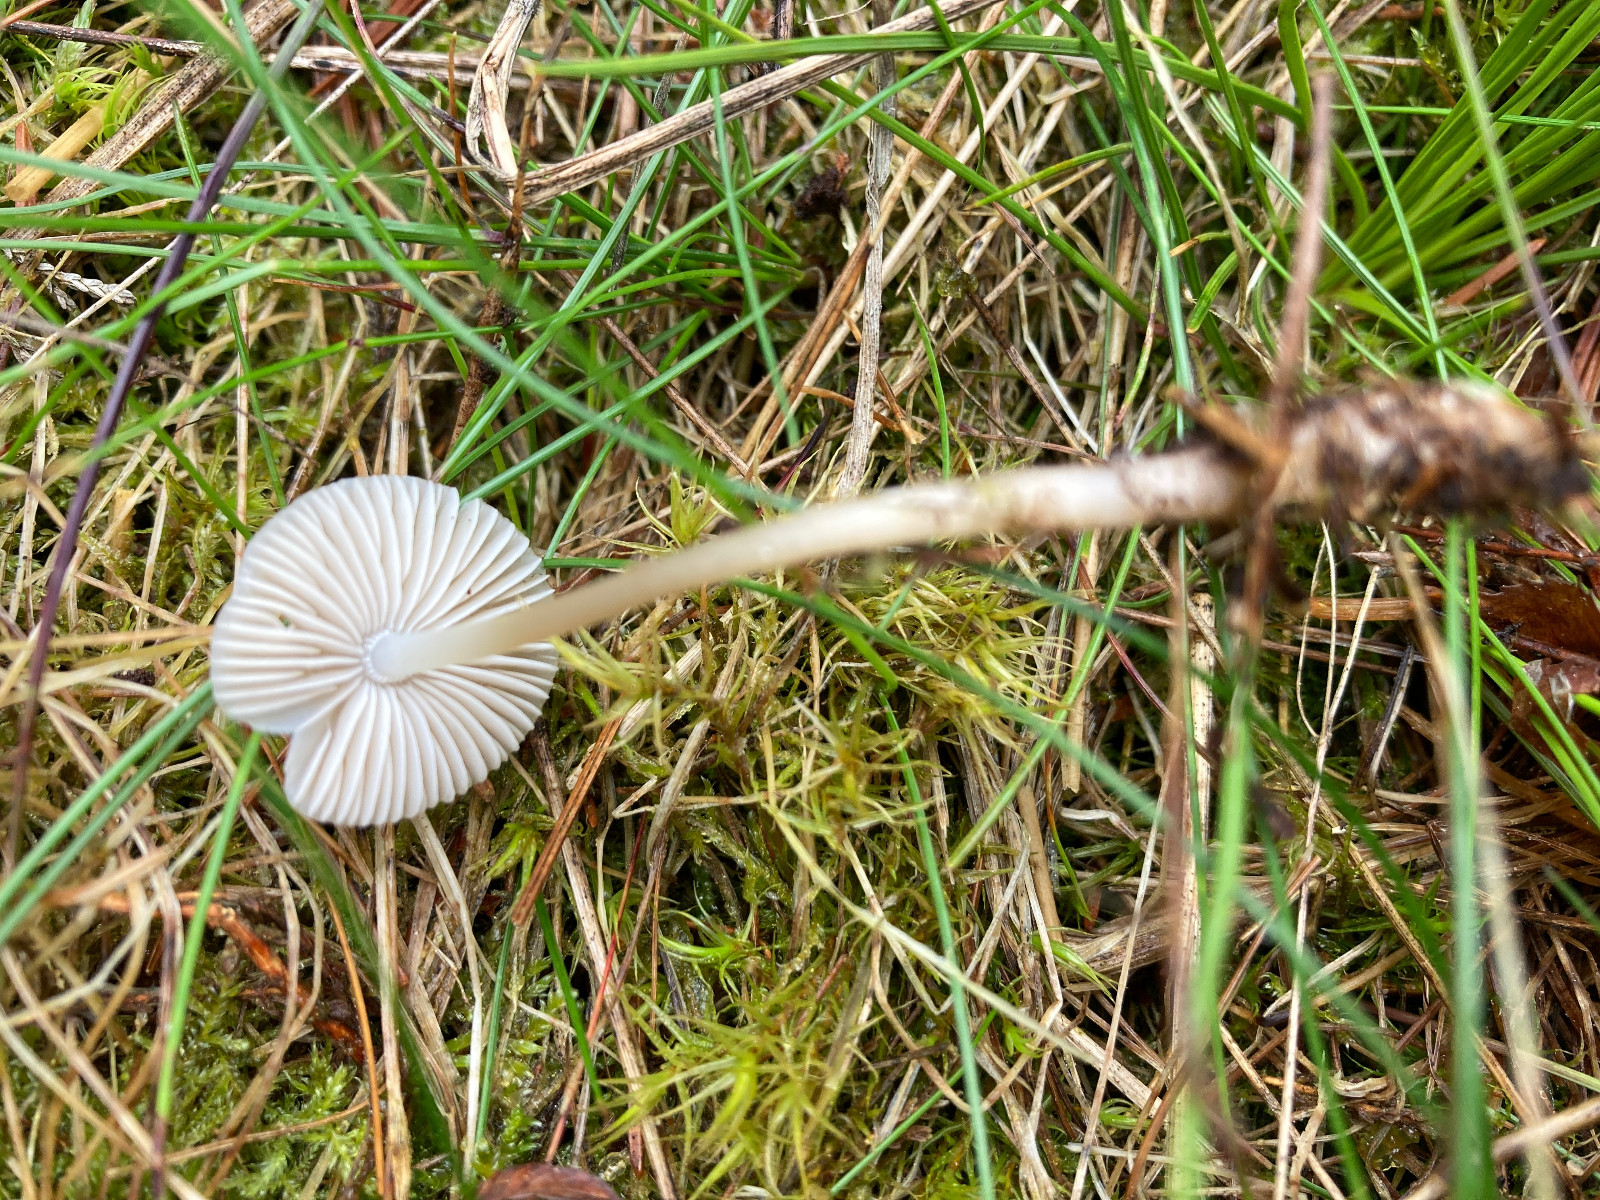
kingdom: Fungi
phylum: Basidiomycota
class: Agaricomycetes
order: Agaricales
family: Mycenaceae
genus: Mycena
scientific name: Mycena galericulata
